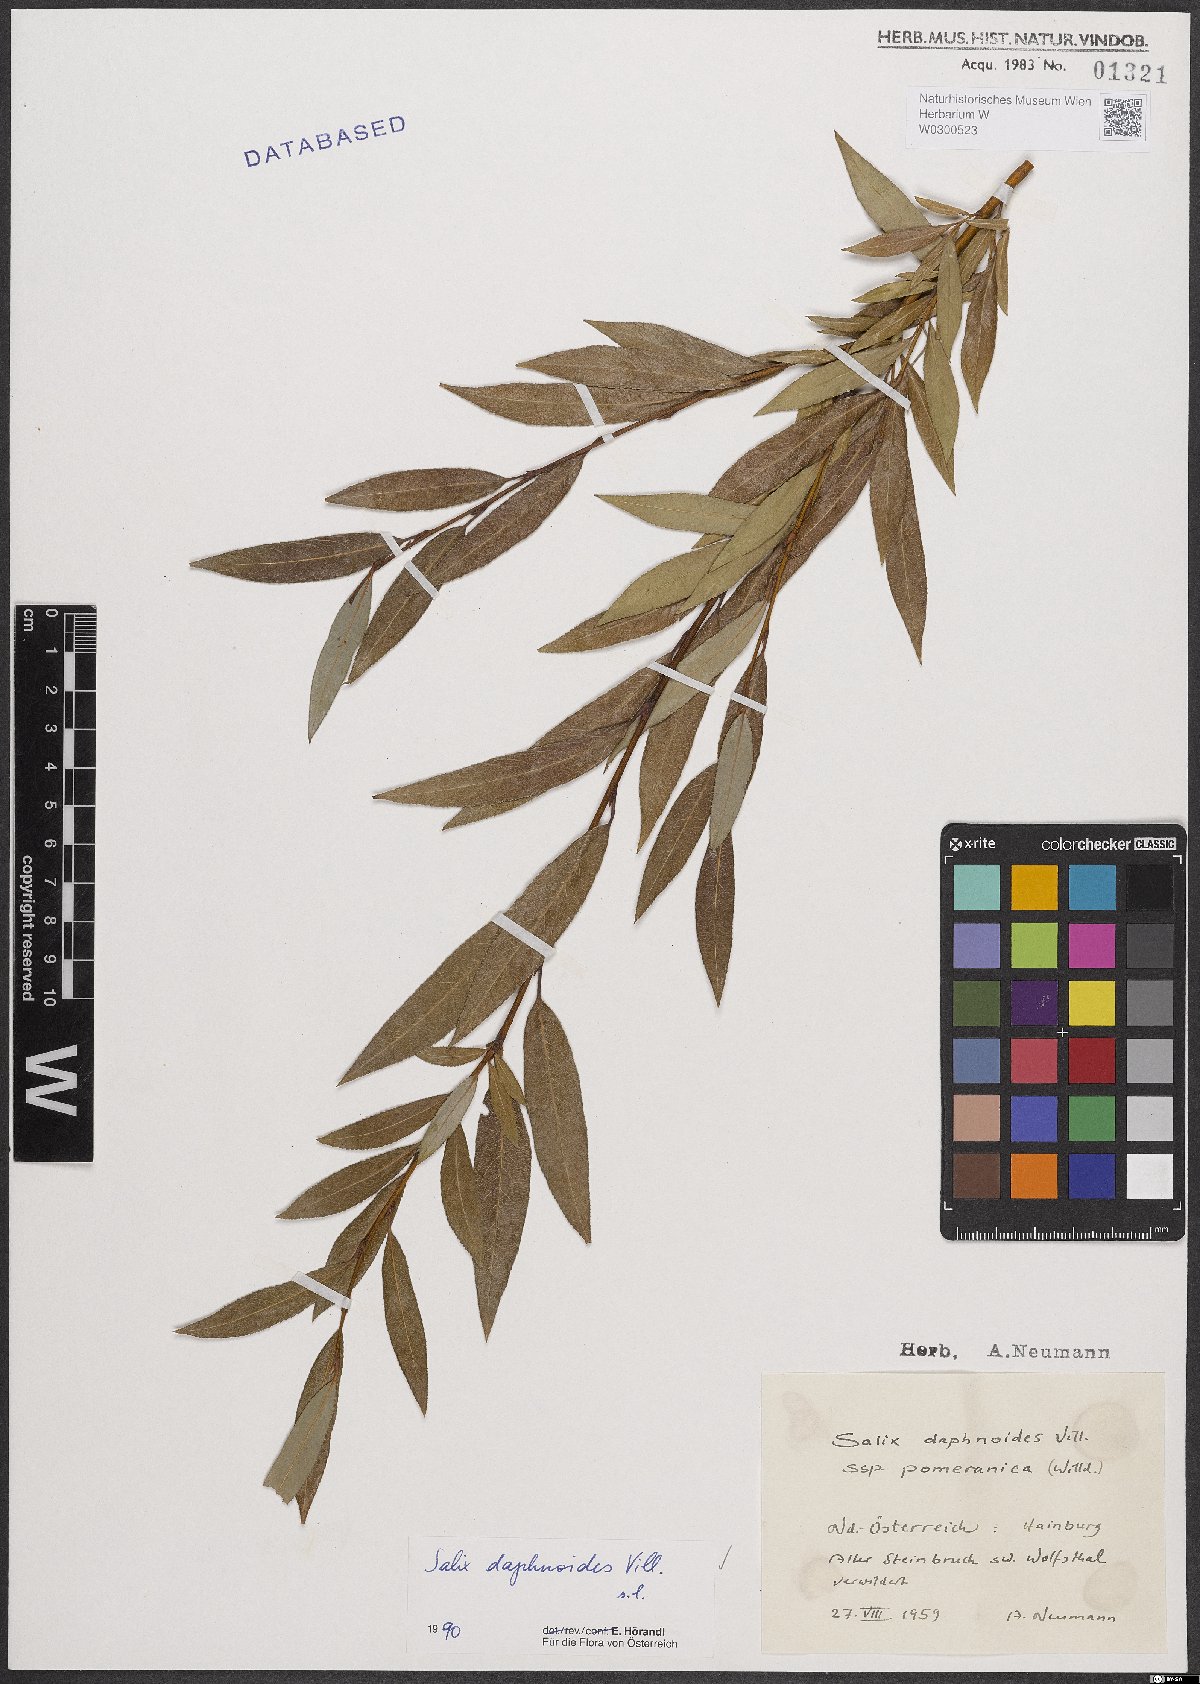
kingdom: Plantae
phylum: Tracheophyta
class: Magnoliopsida
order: Malpighiales
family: Salicaceae
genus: Salix
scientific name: Salix daphnoides
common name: European violet-willow
